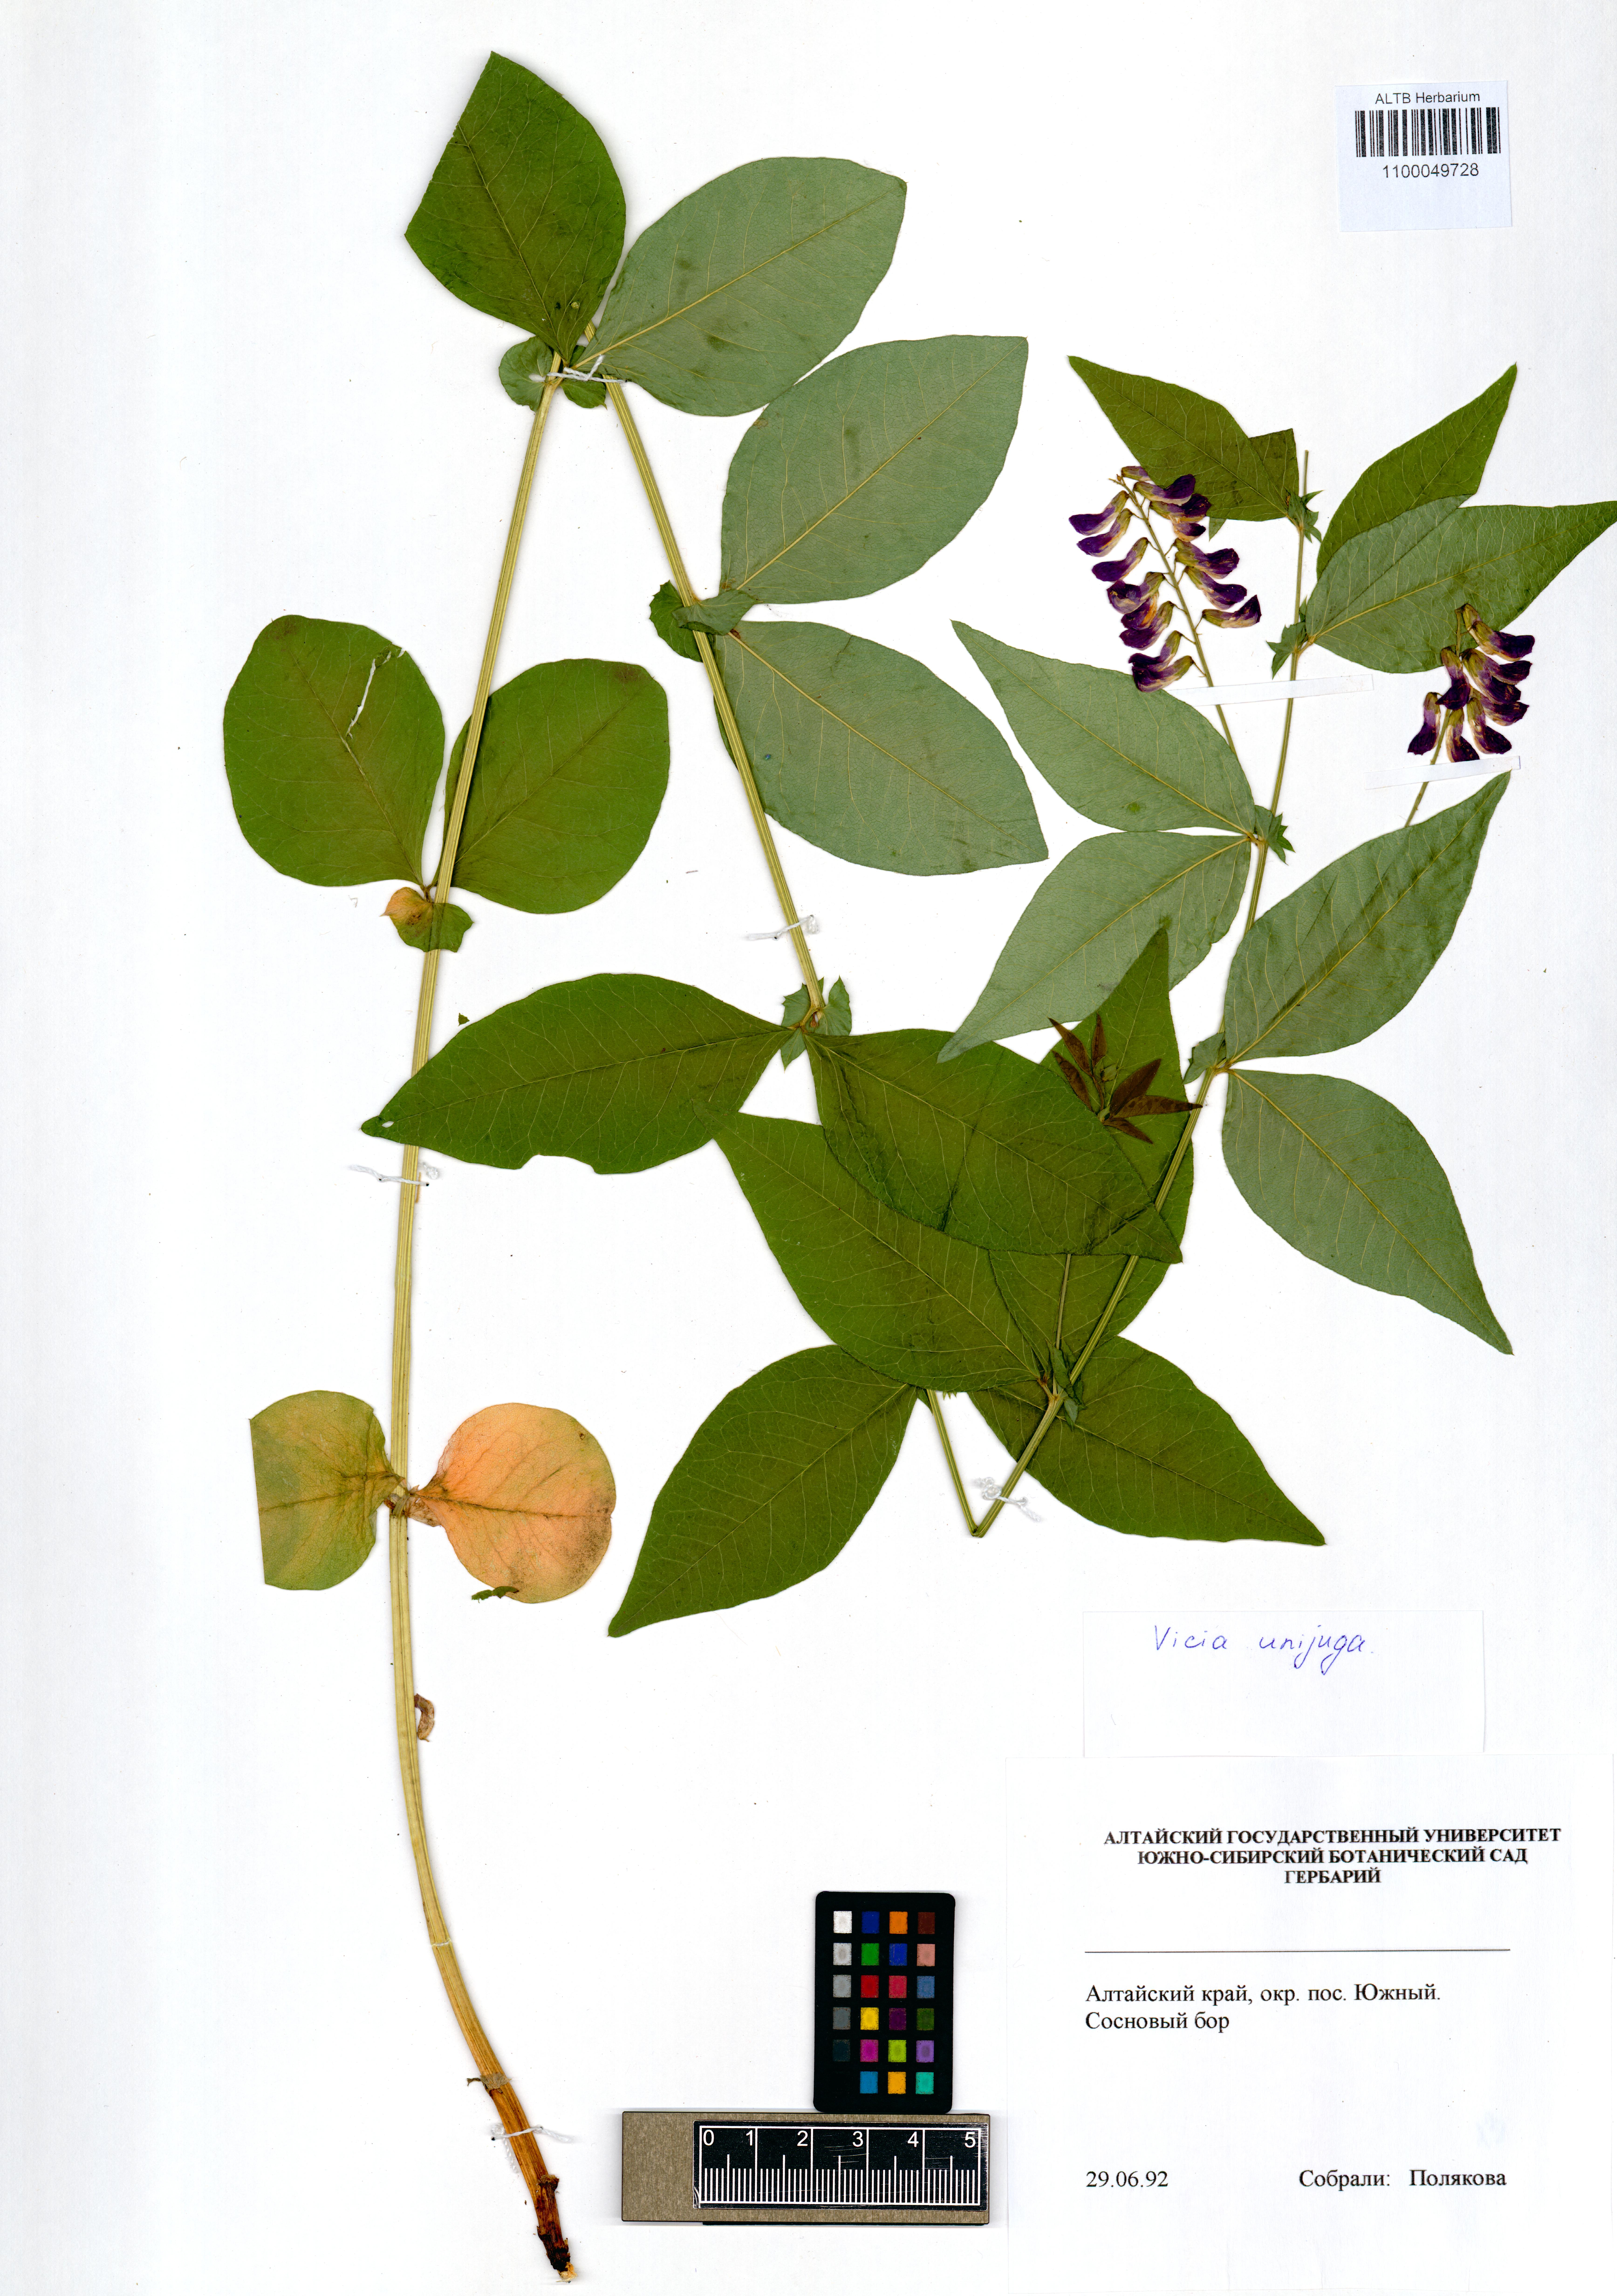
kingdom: Plantae
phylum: Tracheophyta
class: Magnoliopsida
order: Fabales
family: Fabaceae
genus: Vicia
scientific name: Vicia unijuga
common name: Two-leaf vetch
